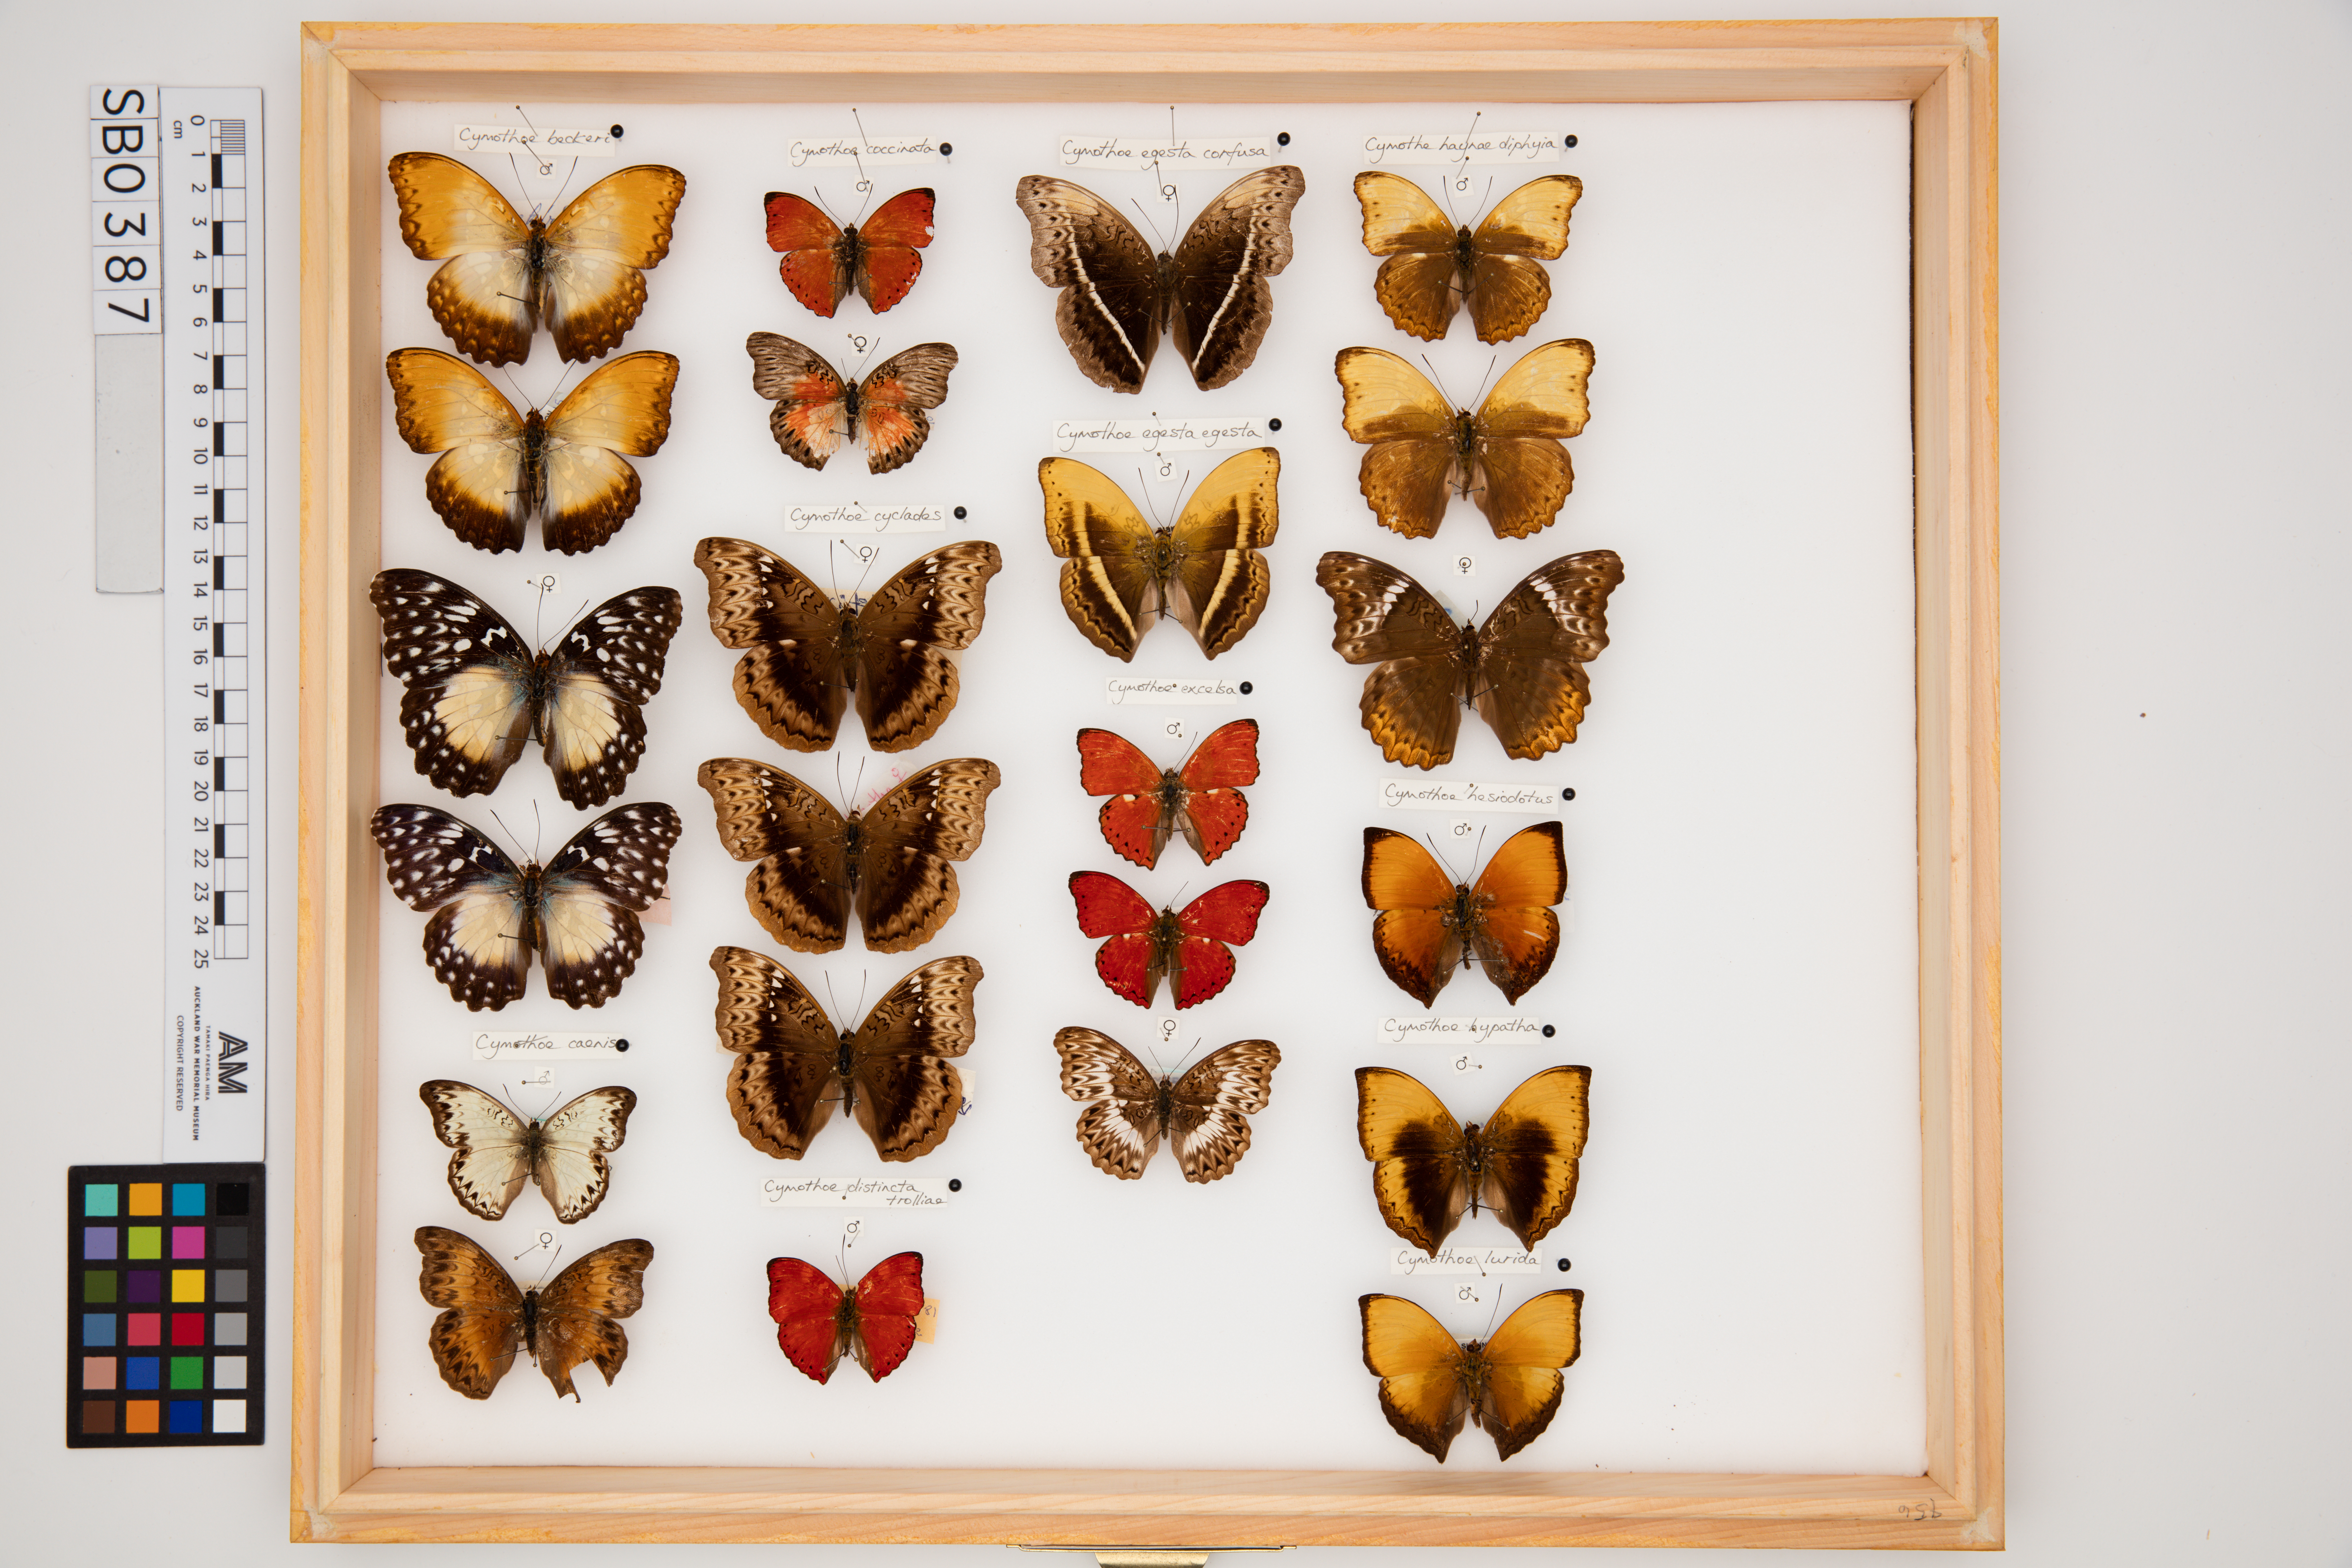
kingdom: Animalia
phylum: Arthropoda
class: Insecta
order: Lepidoptera
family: Nymphalidae
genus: Cymothoe
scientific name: Cymothoe excelsa
